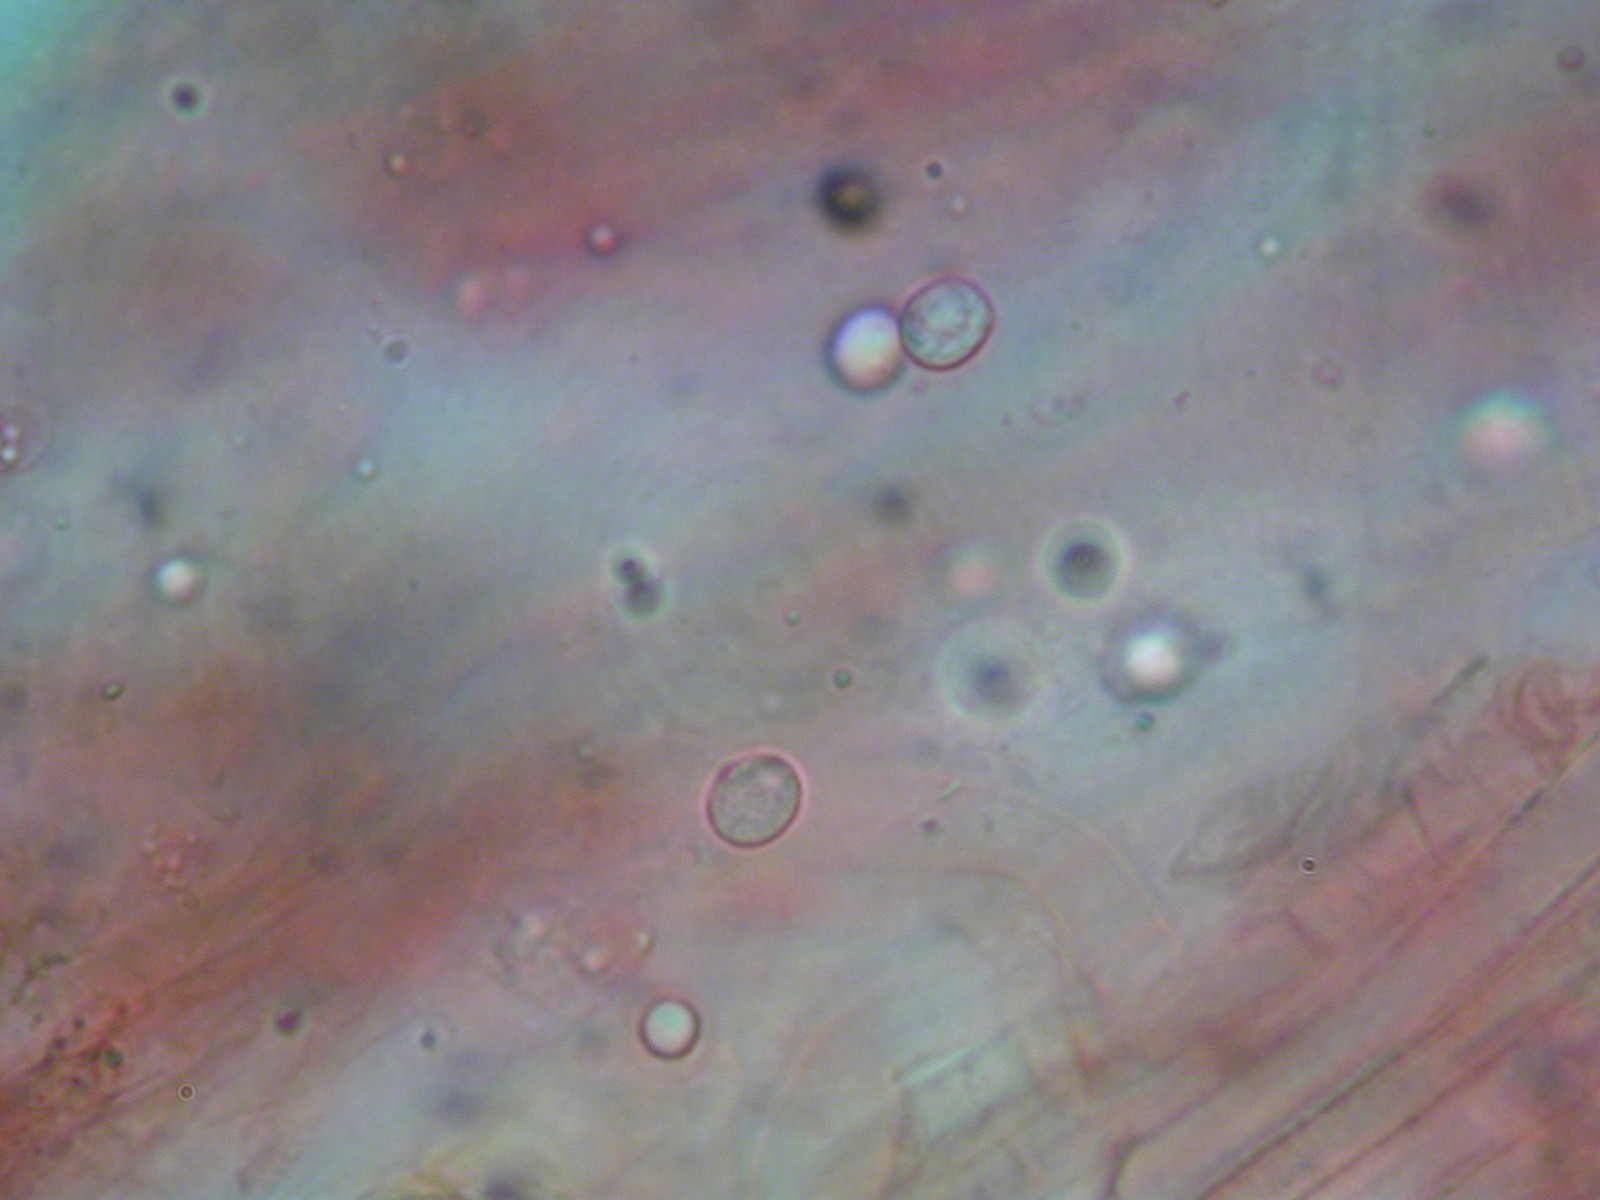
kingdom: Fungi
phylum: Basidiomycota
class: Agaricomycetes
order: Agaricales
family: Lyophyllaceae
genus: Tephrocybe
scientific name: Tephrocybe ambusta
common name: kul-gråblad
